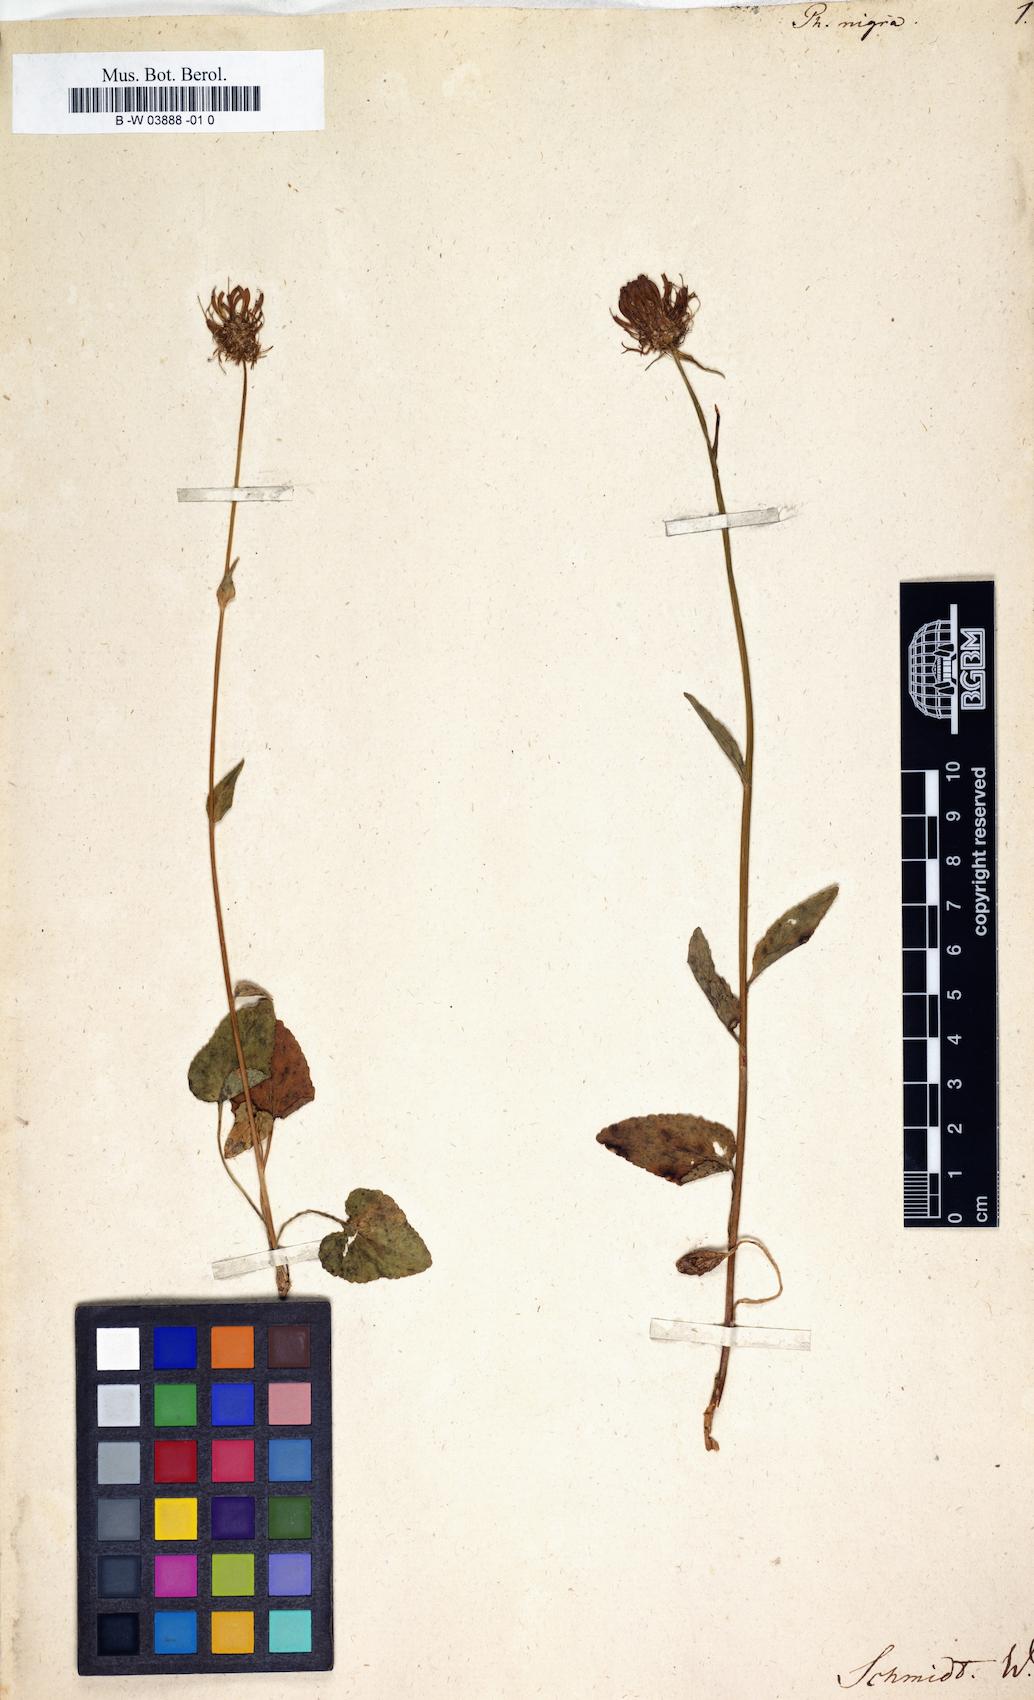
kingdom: Plantae
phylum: Tracheophyta
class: Magnoliopsida
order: Asterales
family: Campanulaceae
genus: Phyteuma
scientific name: Phyteuma nigrum
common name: Black rampion
